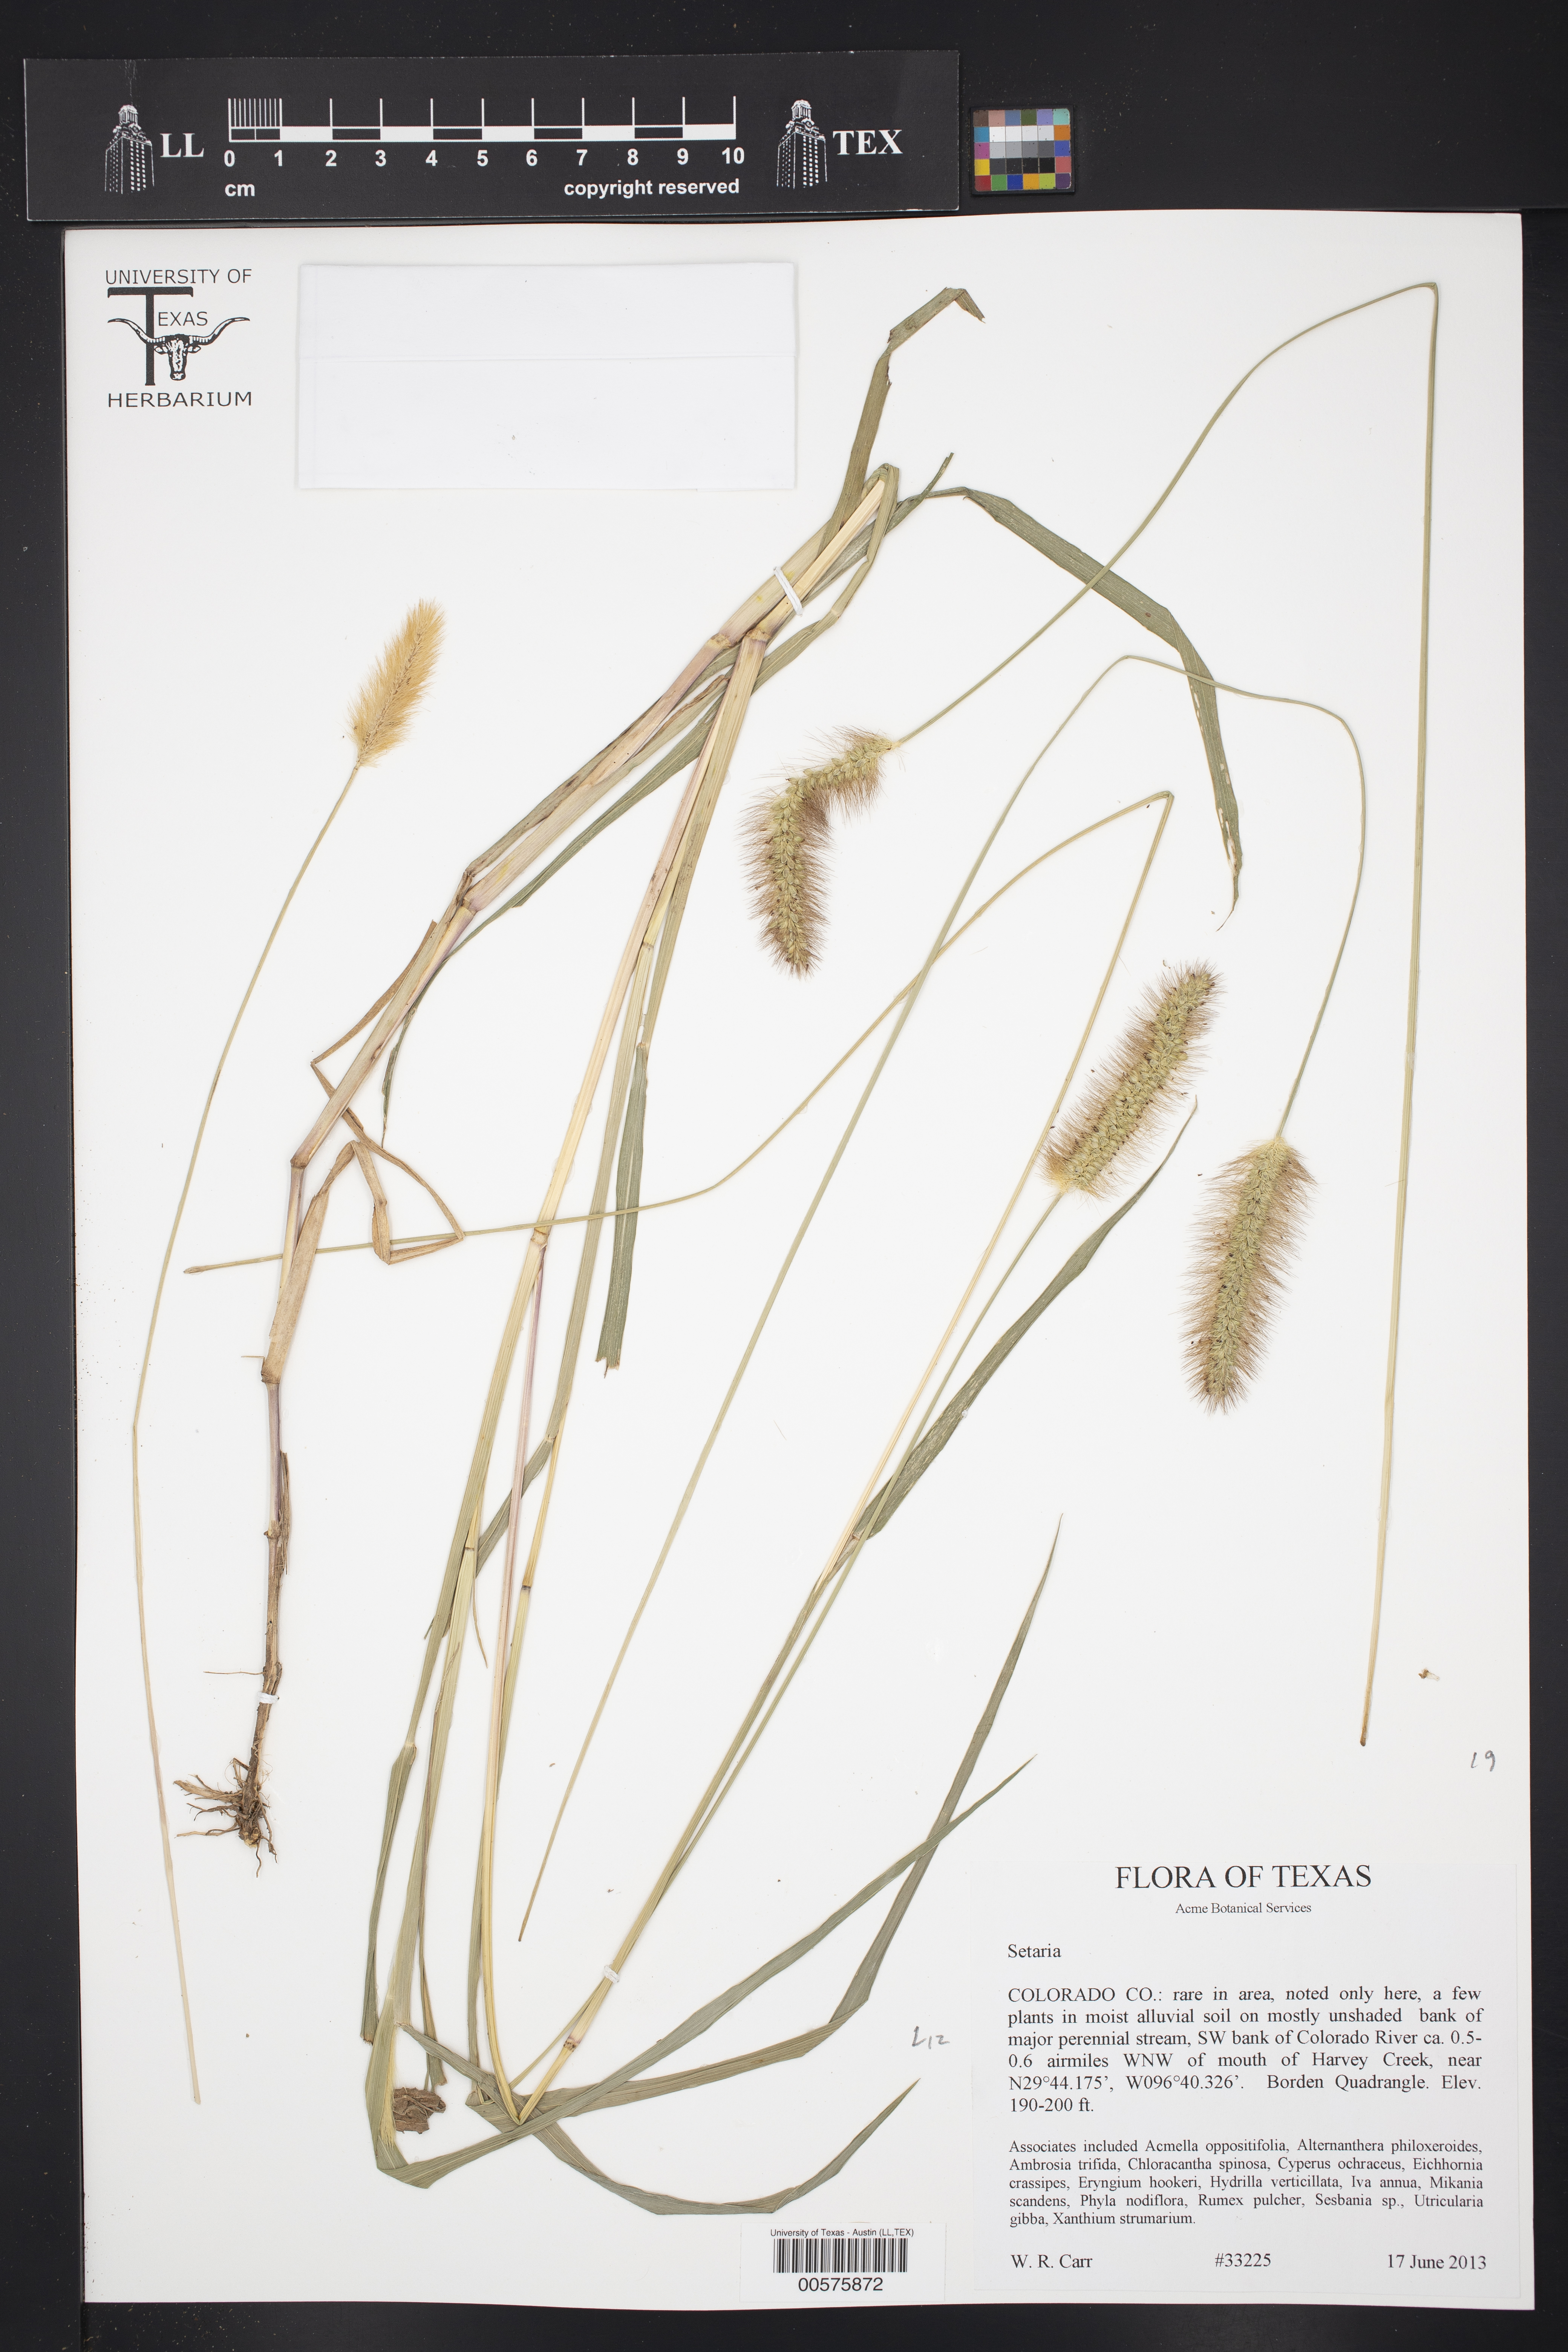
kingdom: Plantae
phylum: Tracheophyta
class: Liliopsida
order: Poales
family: Poaceae
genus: Setaria
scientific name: Setaria
